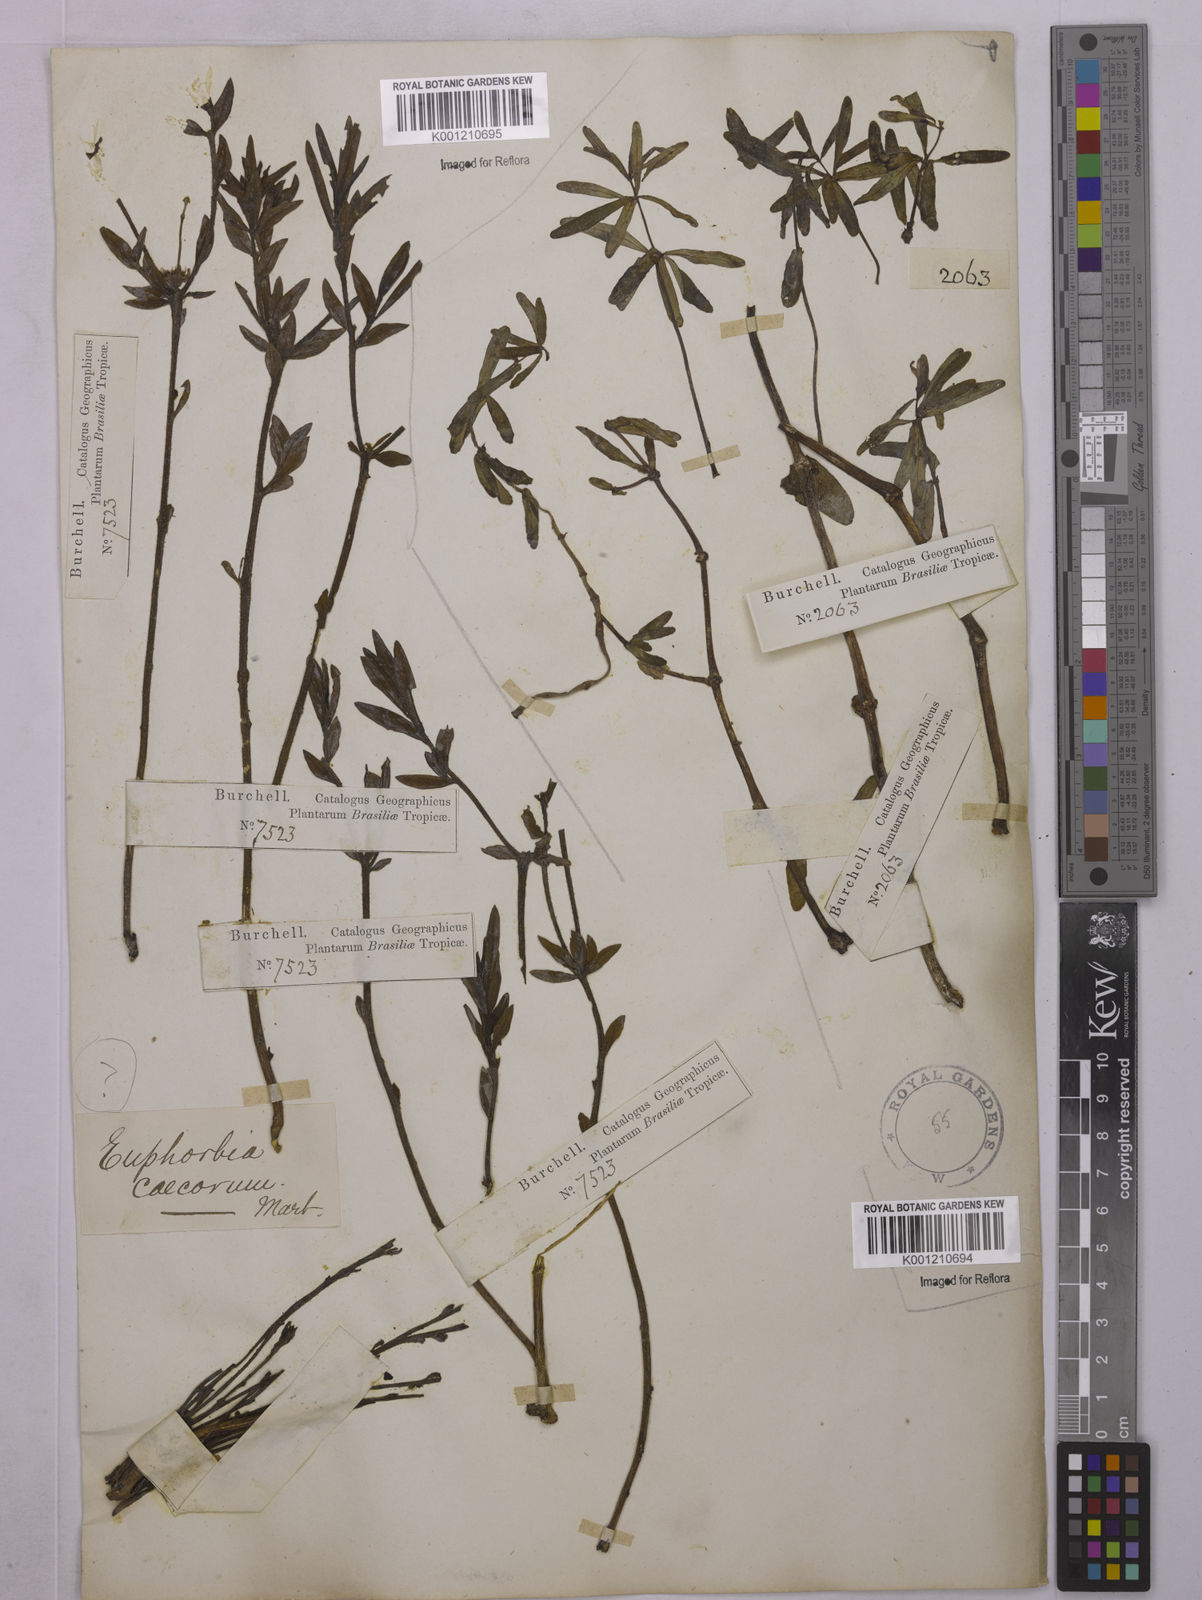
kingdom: Plantae
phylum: Tracheophyta
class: Magnoliopsida
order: Malpighiales
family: Euphorbiaceae
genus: Euphorbia
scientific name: Euphorbia potentilloides
